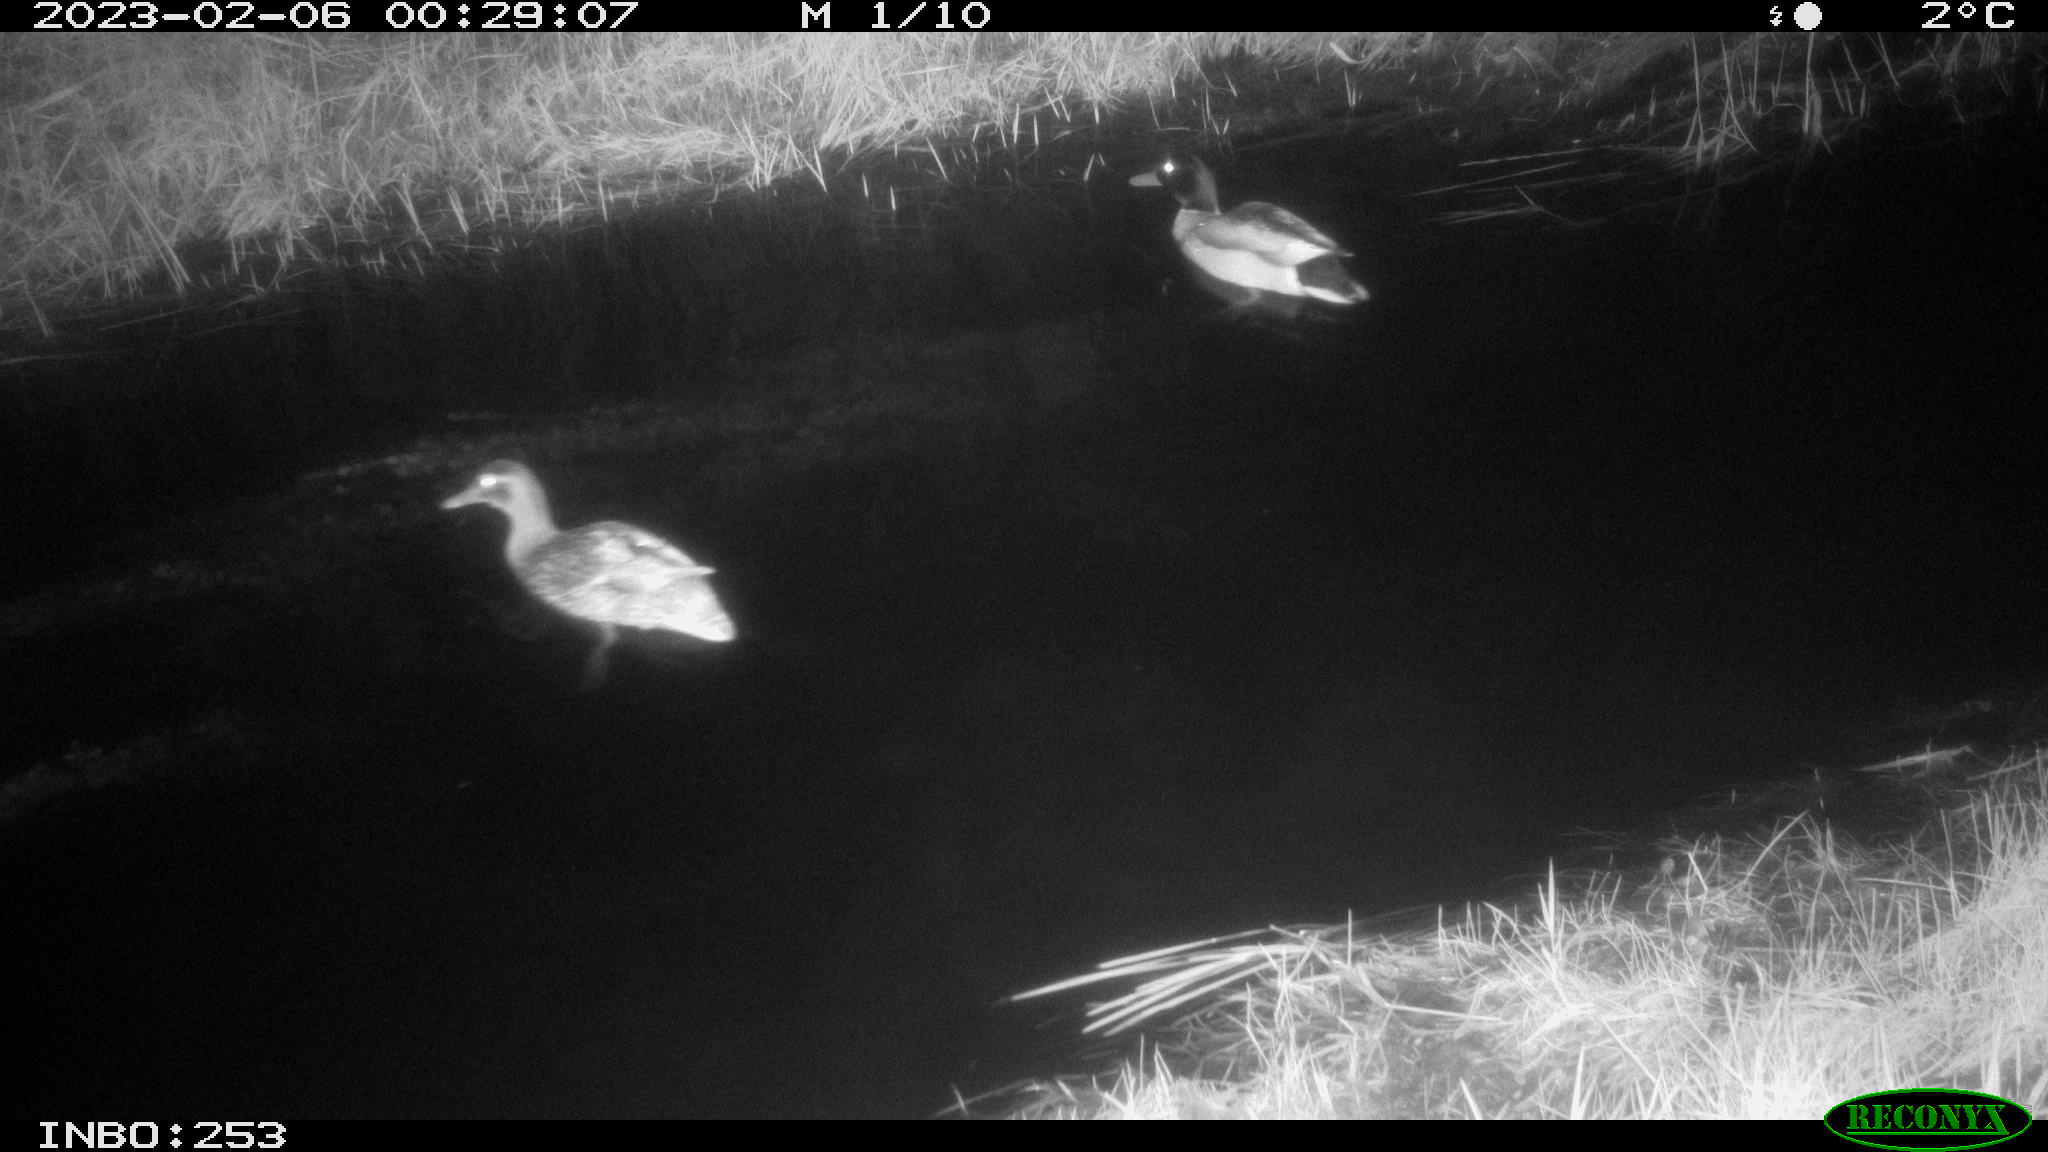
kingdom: Animalia
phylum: Chordata
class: Aves
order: Anseriformes
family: Anatidae
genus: Anas
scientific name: Anas
